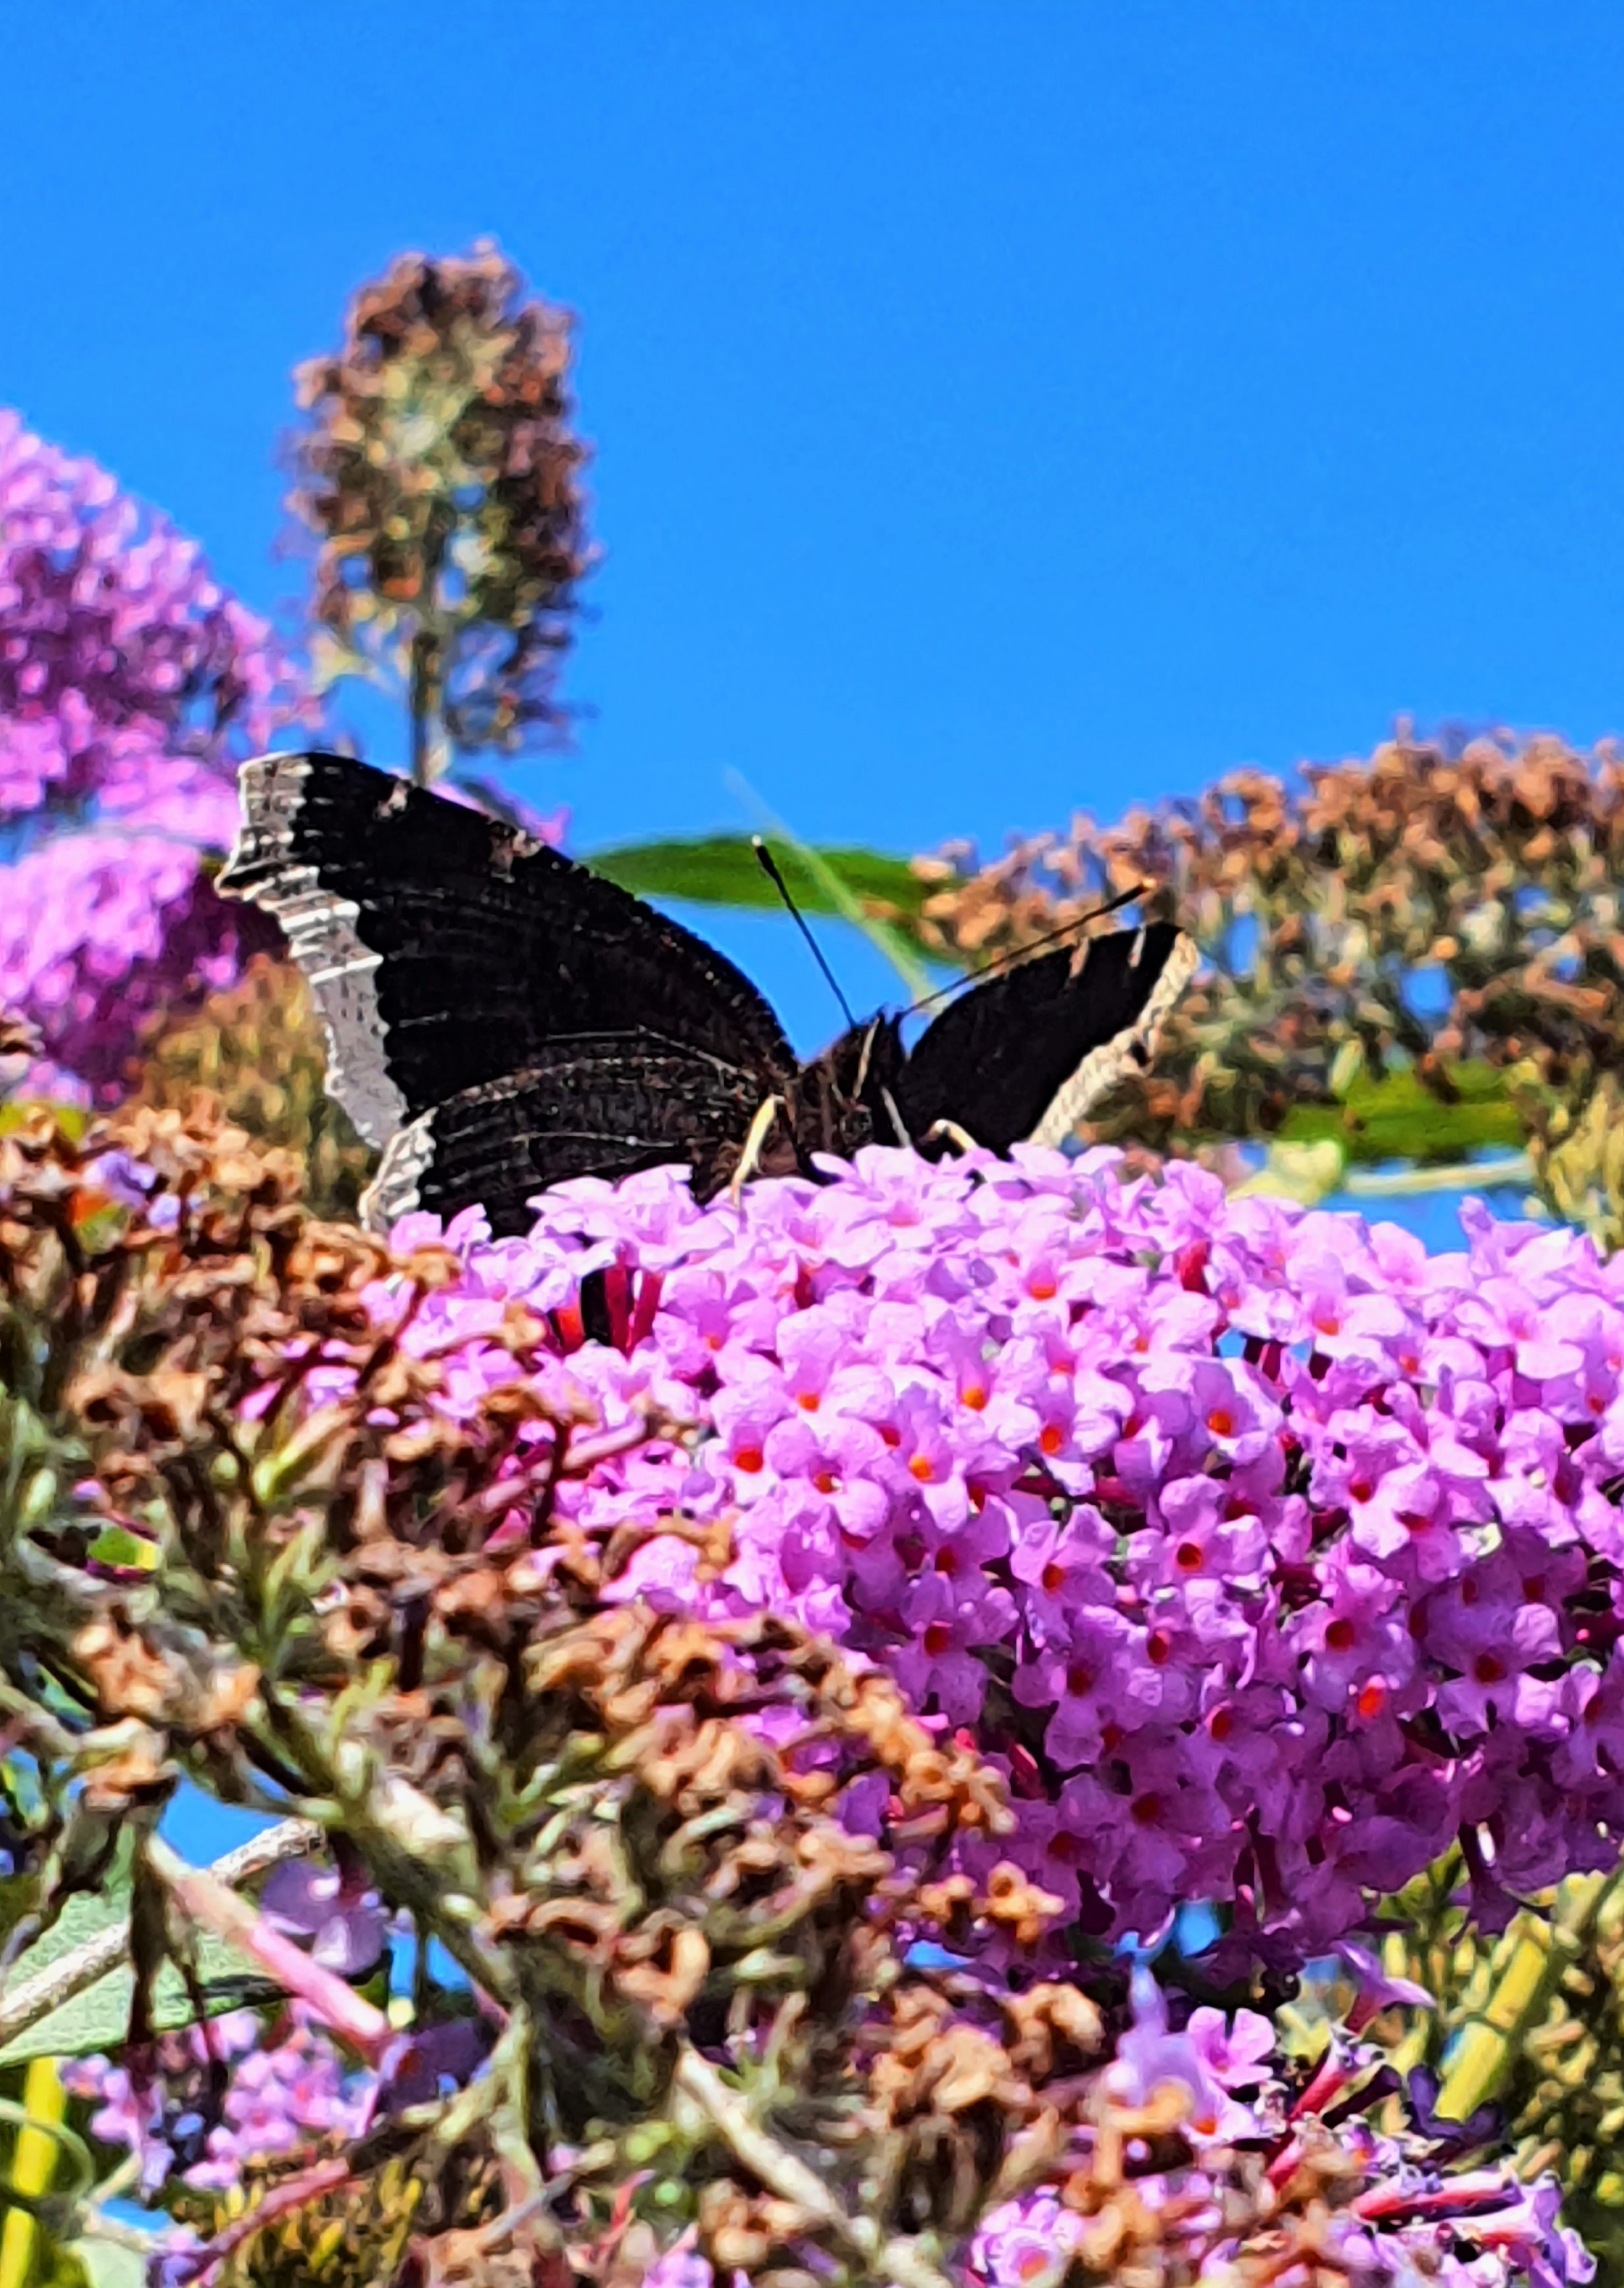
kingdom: Animalia
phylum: Arthropoda
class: Insecta
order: Lepidoptera
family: Nymphalidae
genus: Nymphalis
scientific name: Nymphalis antiopa
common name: Sørgekåbe
